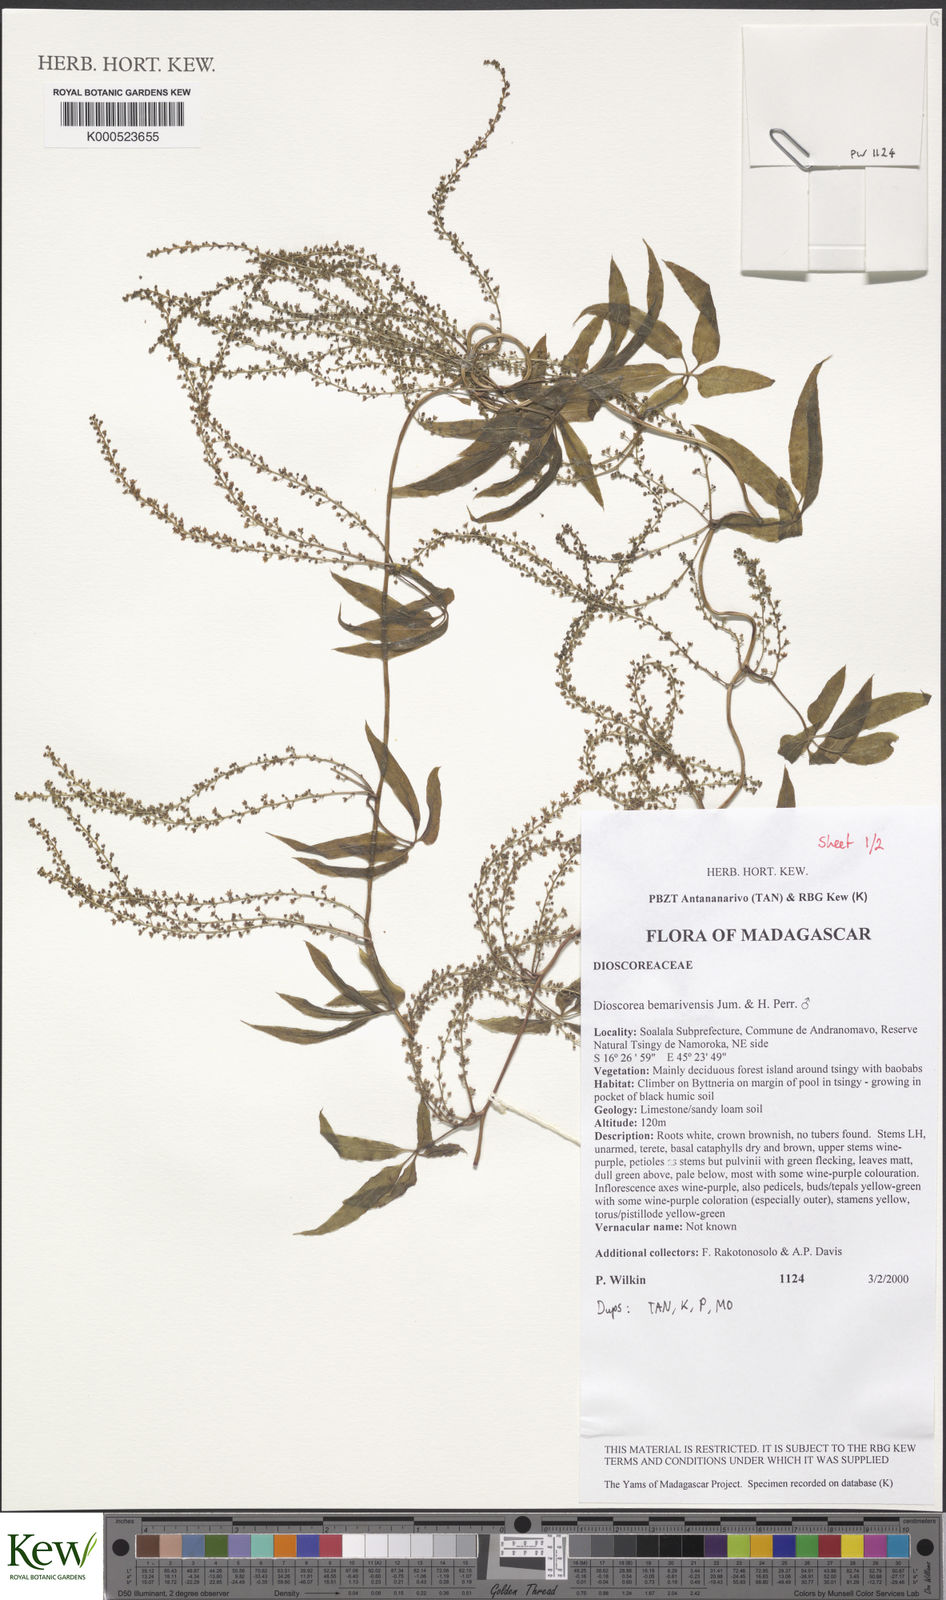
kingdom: Plantae
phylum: Tracheophyta
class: Liliopsida
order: Dioscoreales
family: Dioscoreaceae
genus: Dioscorea
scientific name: Dioscorea bemarivensis
